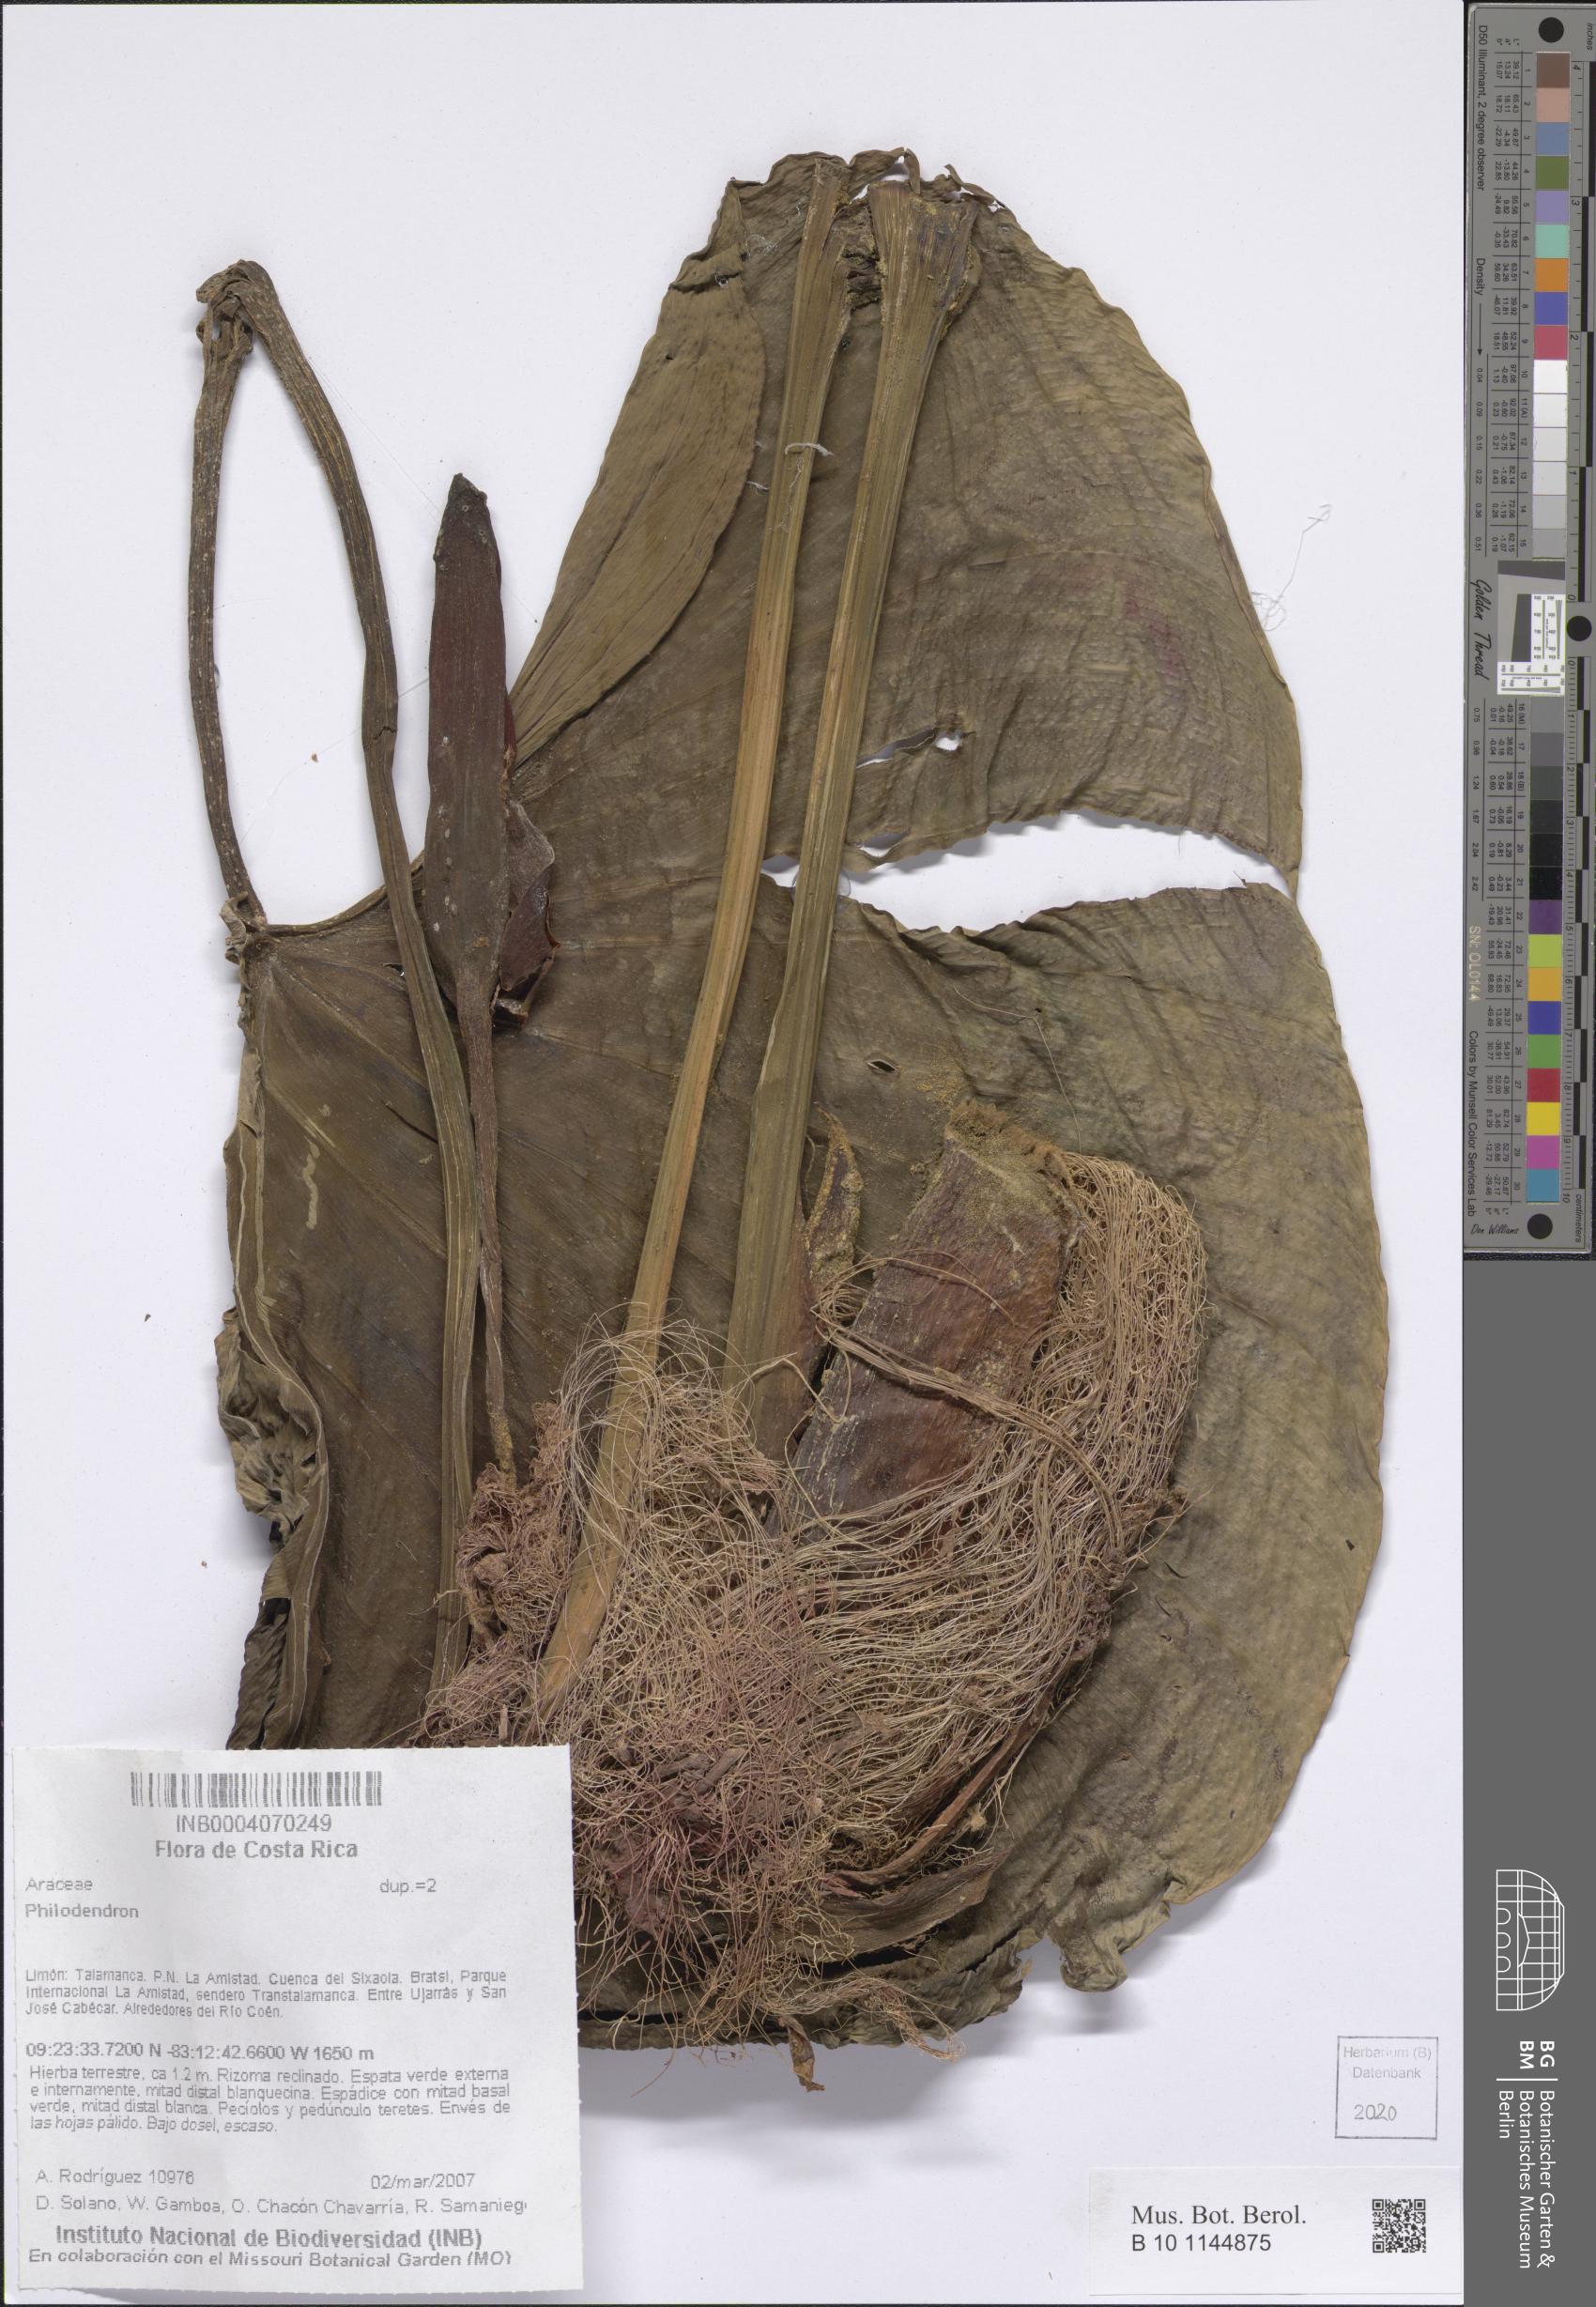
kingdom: Plantae
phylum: Tracheophyta
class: Liliopsida
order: Alismatales
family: Araceae
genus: Philodendron
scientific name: Philodendron
